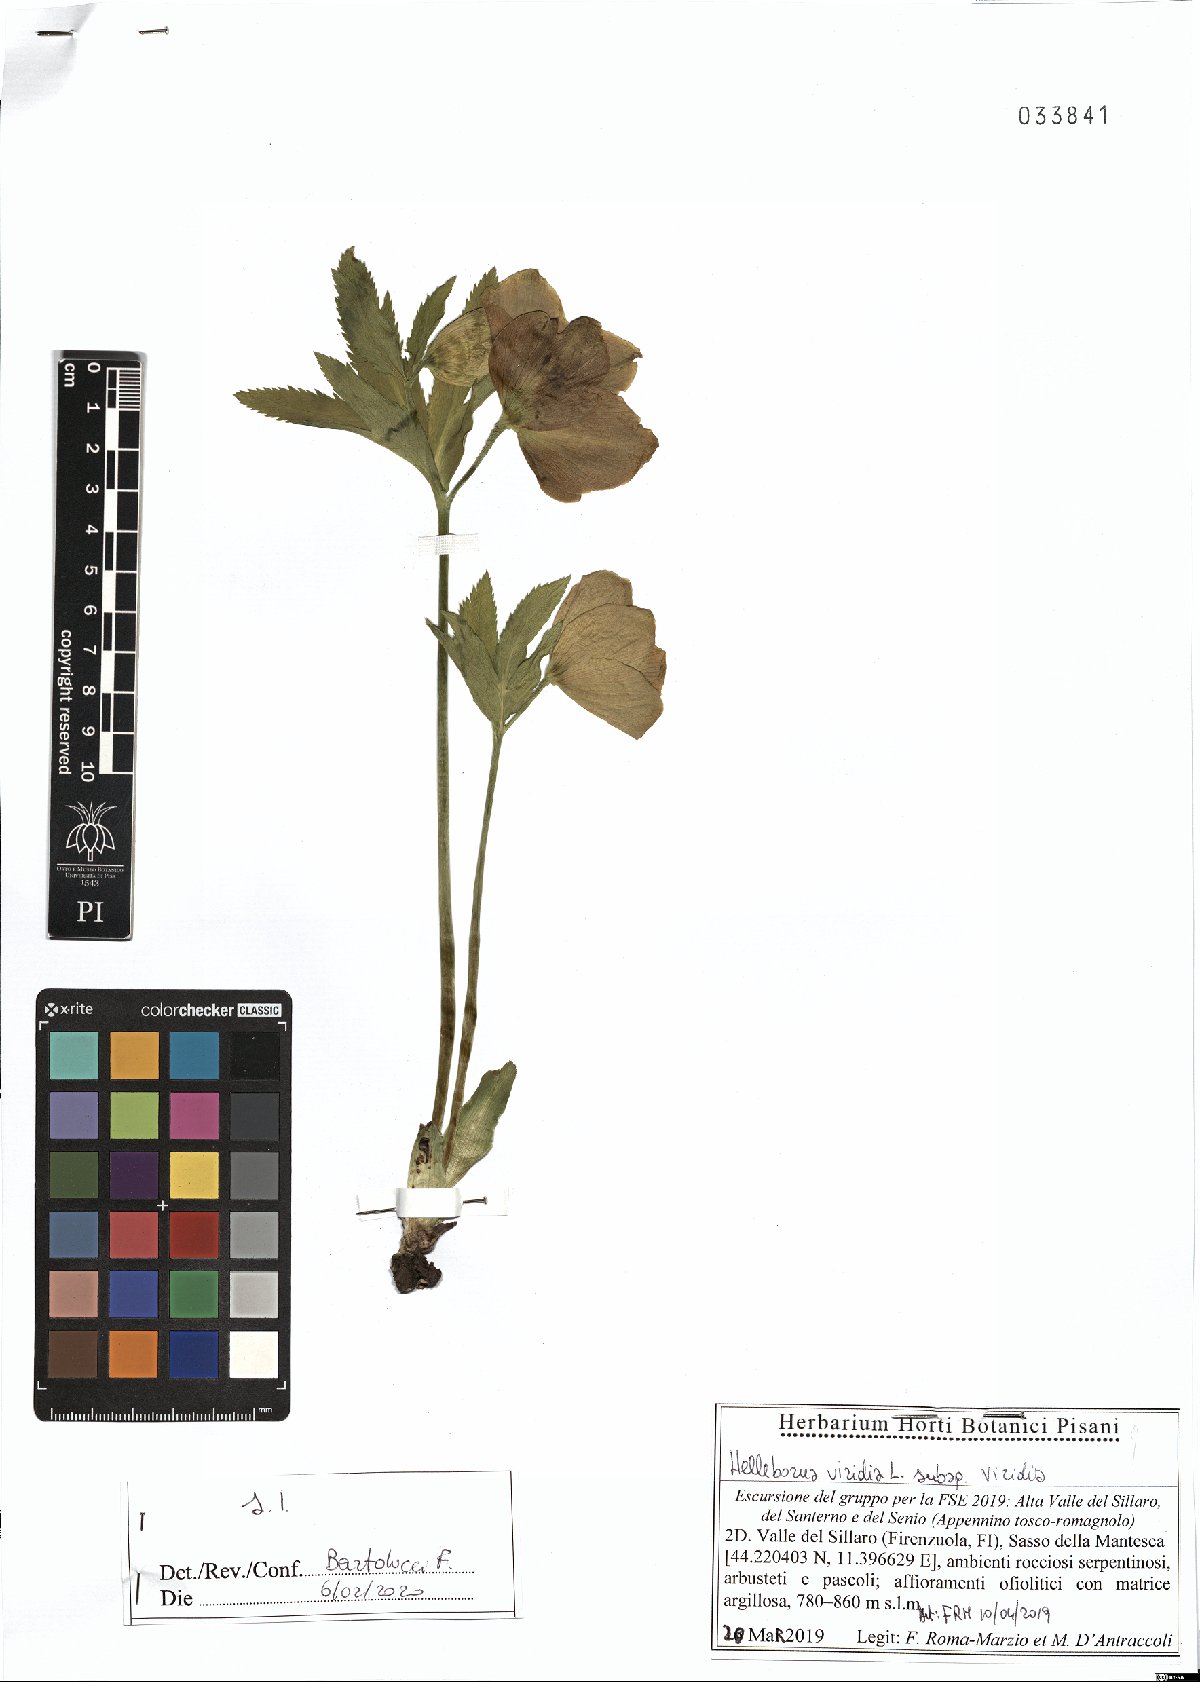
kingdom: Plantae
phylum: Tracheophyta
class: Magnoliopsida
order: Ranunculales
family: Ranunculaceae
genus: Helleborus
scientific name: Helleborus viridis
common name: Green hellebore
